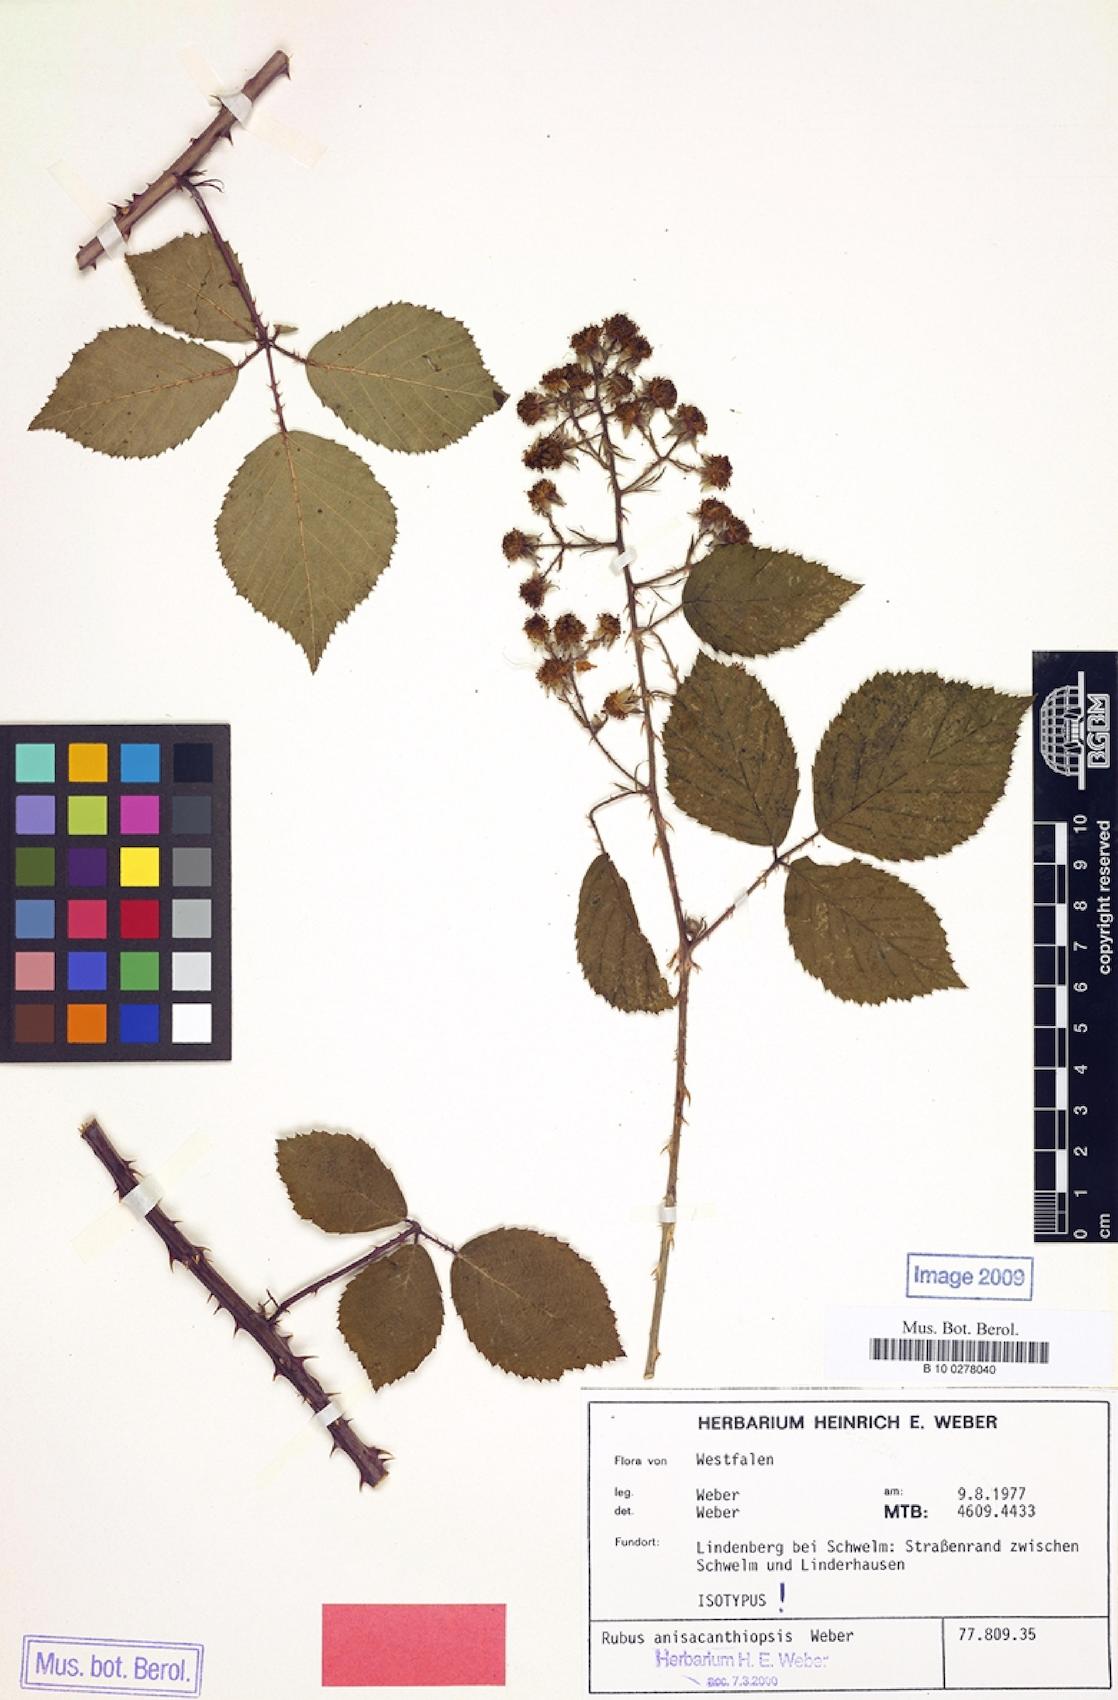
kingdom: Plantae
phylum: Tracheophyta
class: Magnoliopsida
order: Rosales
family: Rosaceae
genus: Rubus
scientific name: Rubus anisacanthiopsis
